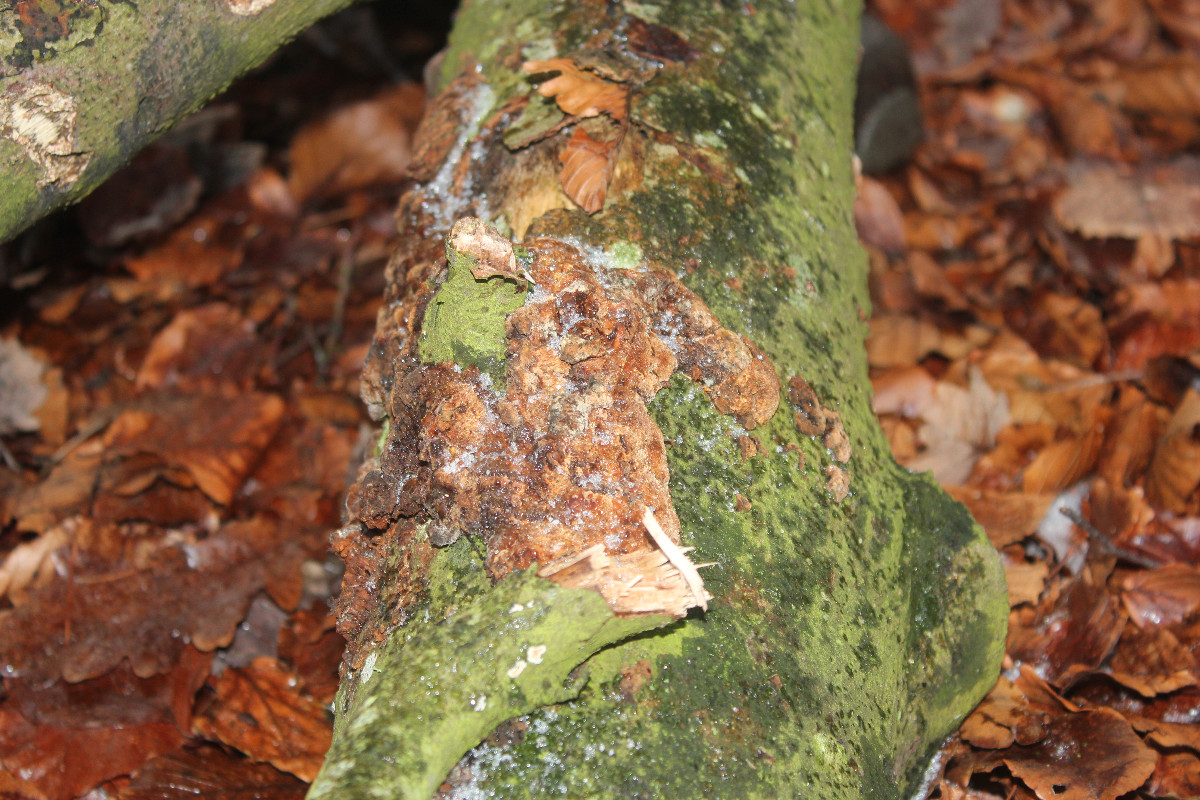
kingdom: Fungi
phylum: Basidiomycota
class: Agaricomycetes
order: Hymenochaetales
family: Hymenochaetaceae
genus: Mensularia
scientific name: Mensularia nodulosa
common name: bøge-spejlporesvamp
